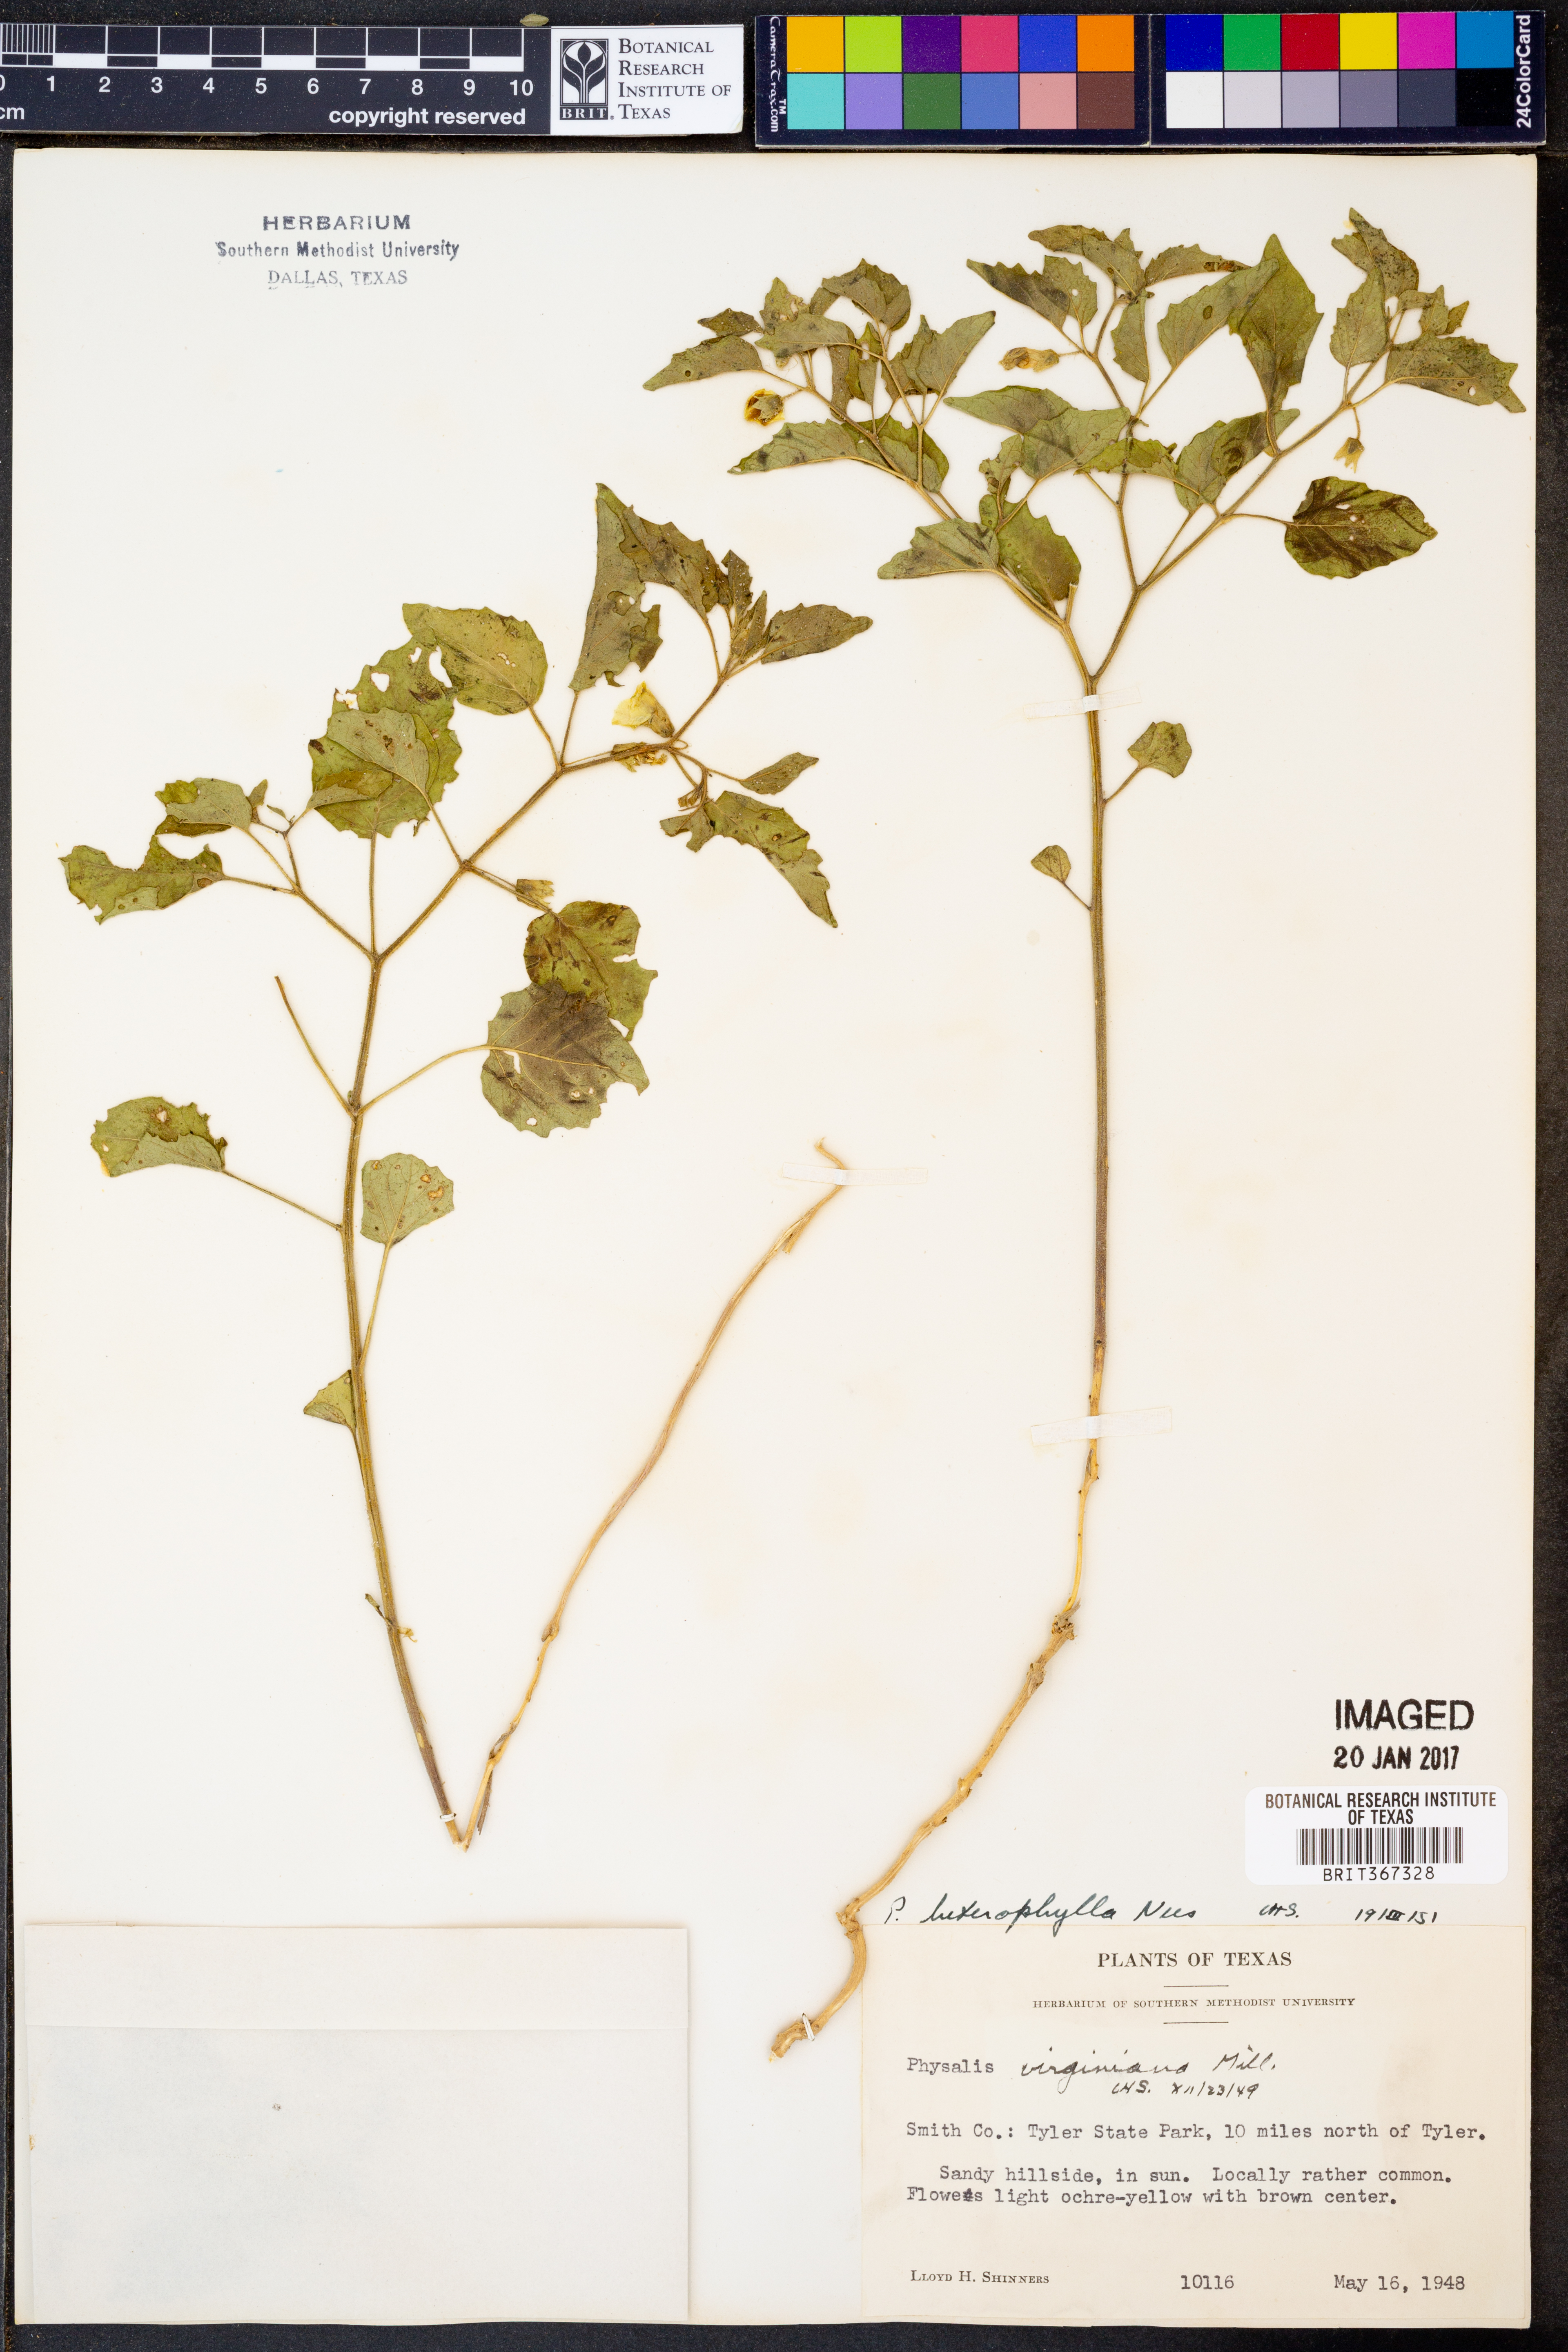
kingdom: Plantae
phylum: Tracheophyta
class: Magnoliopsida
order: Solanales
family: Solanaceae
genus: Physalis
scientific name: Physalis macrosperma
